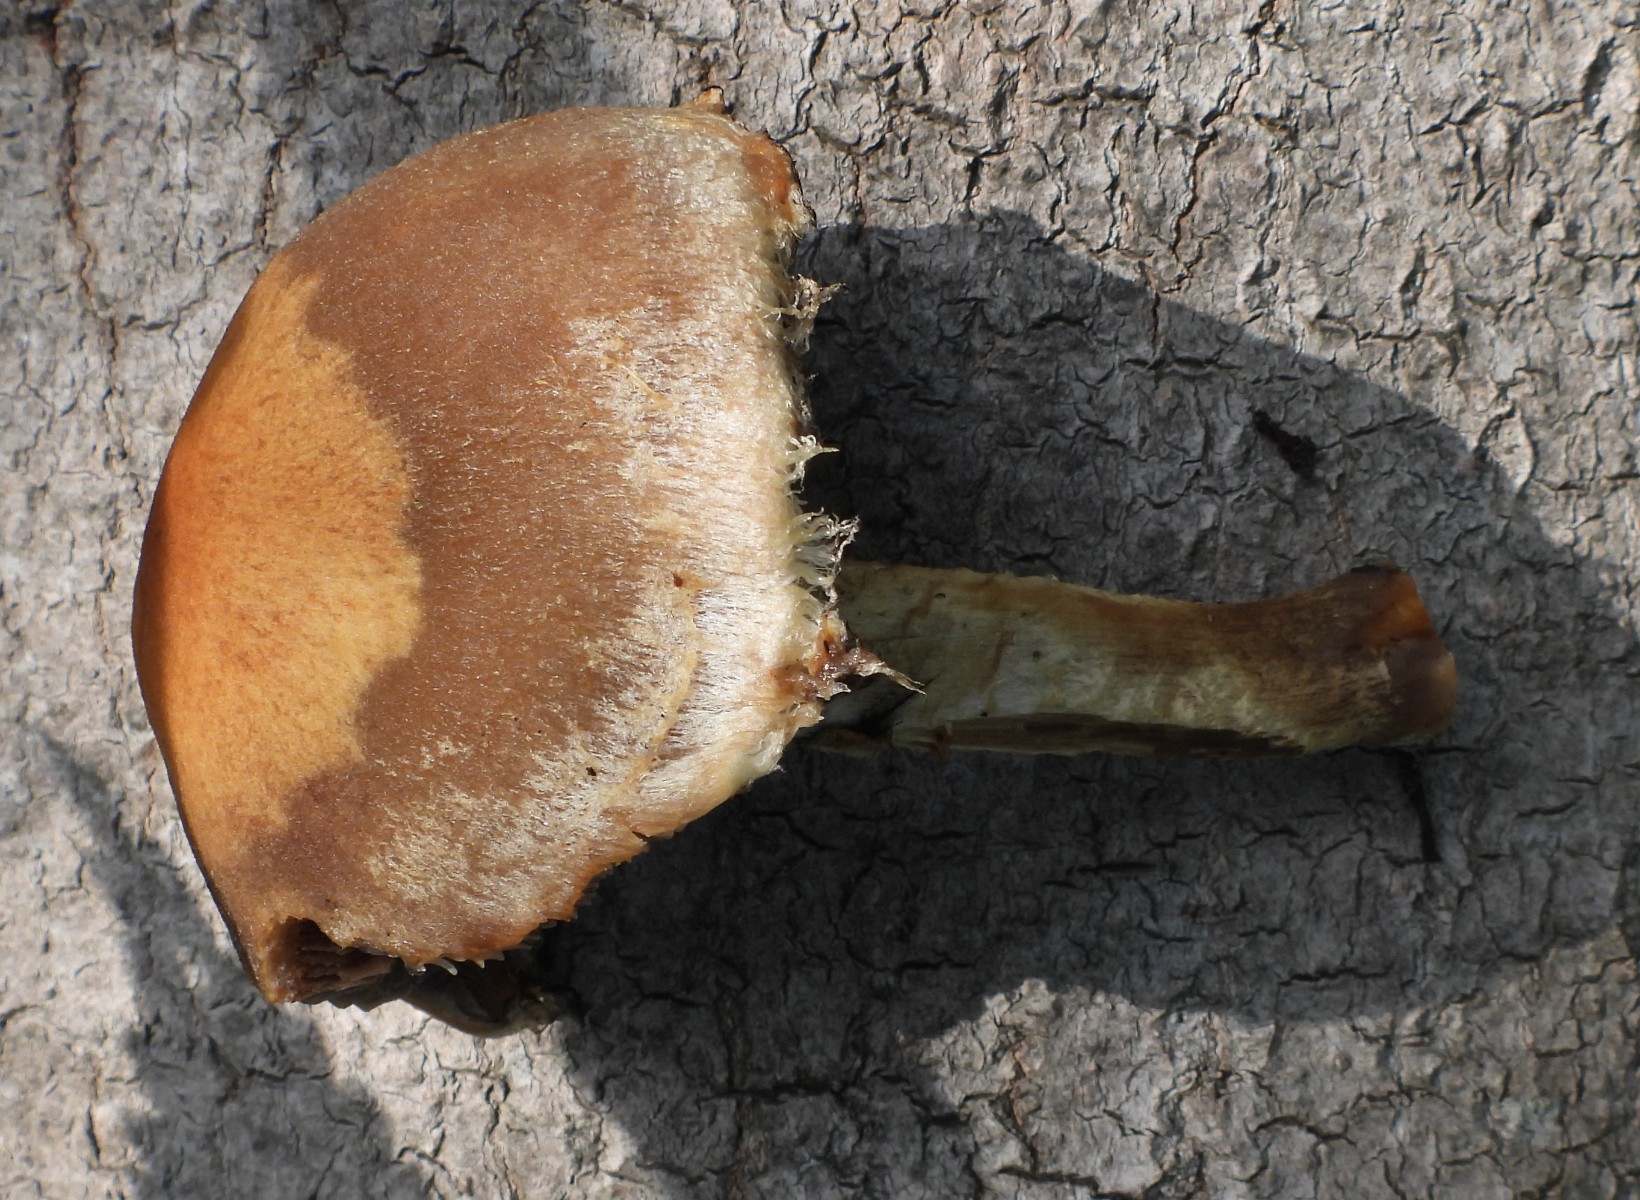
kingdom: Fungi
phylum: Basidiomycota
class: Agaricomycetes
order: Agaricales
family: Psathyrellaceae
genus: Lacrymaria
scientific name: Lacrymaria lacrymabunda
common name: grædende mørkhat
